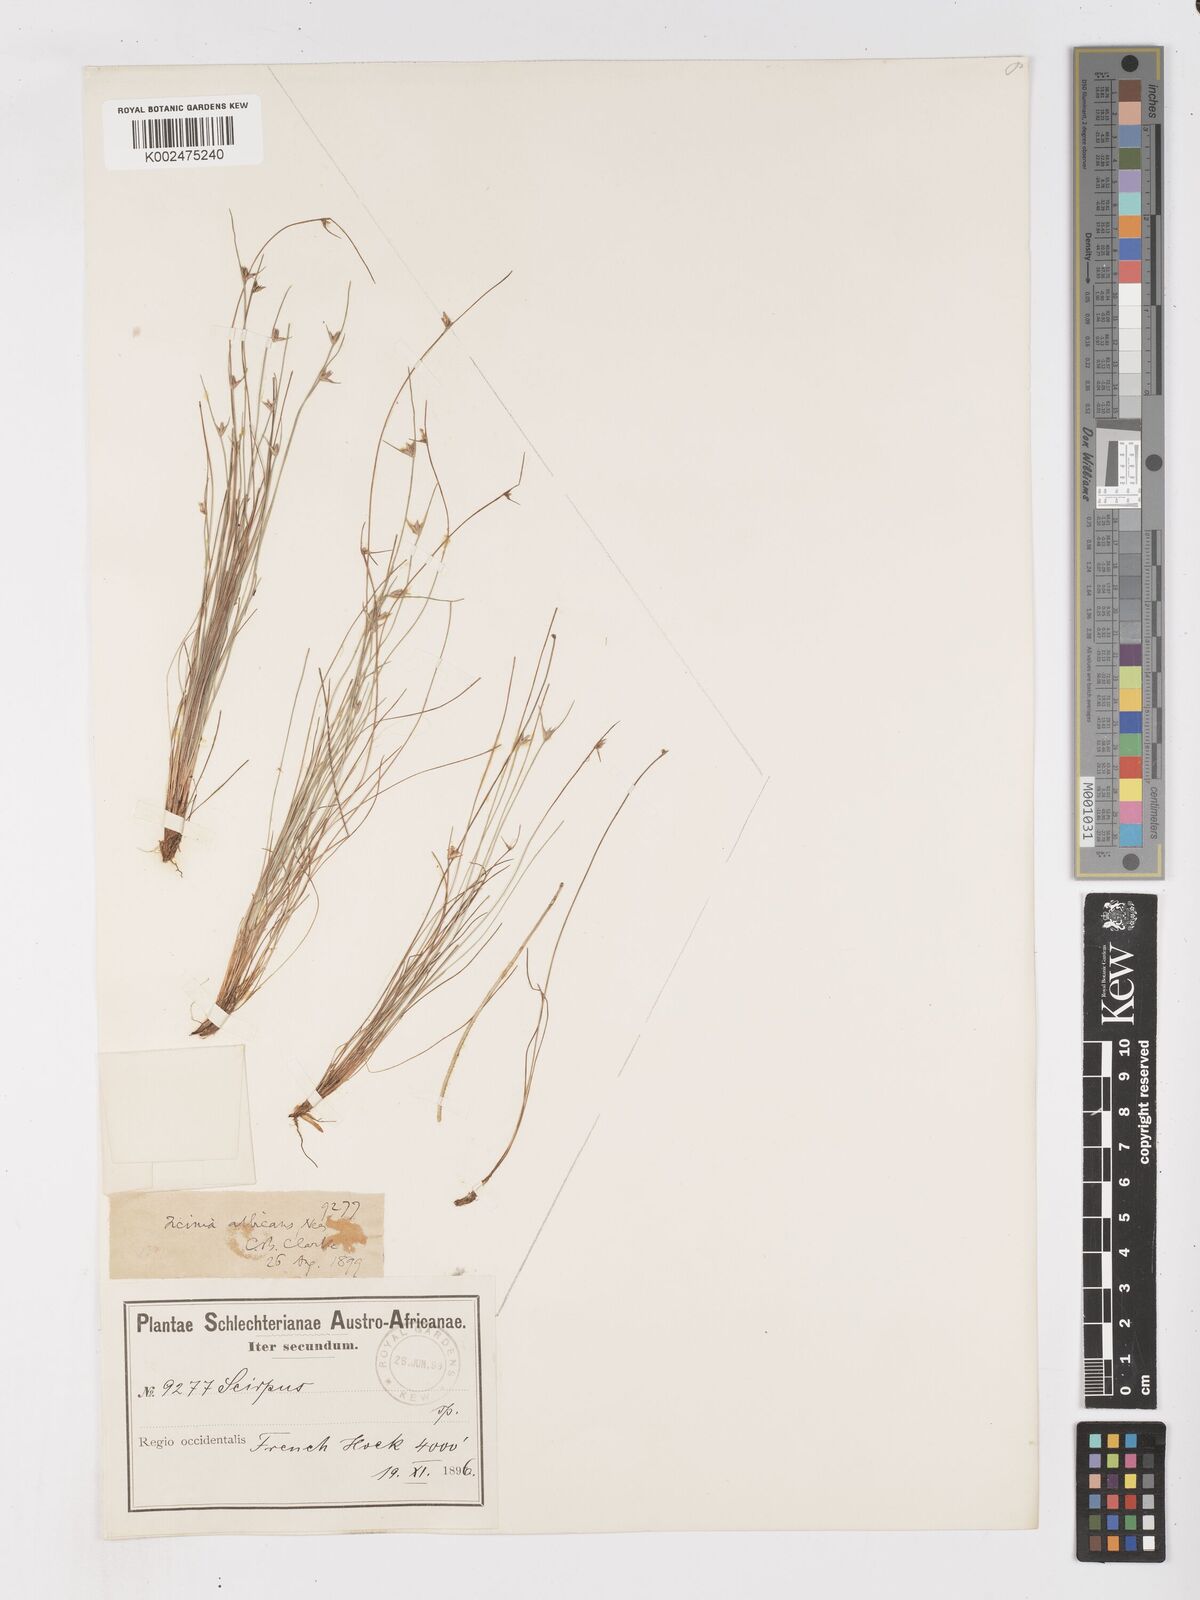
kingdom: Plantae
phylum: Tracheophyta
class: Liliopsida
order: Poales
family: Cyperaceae
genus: Ficinia
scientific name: Ficinia albicans
